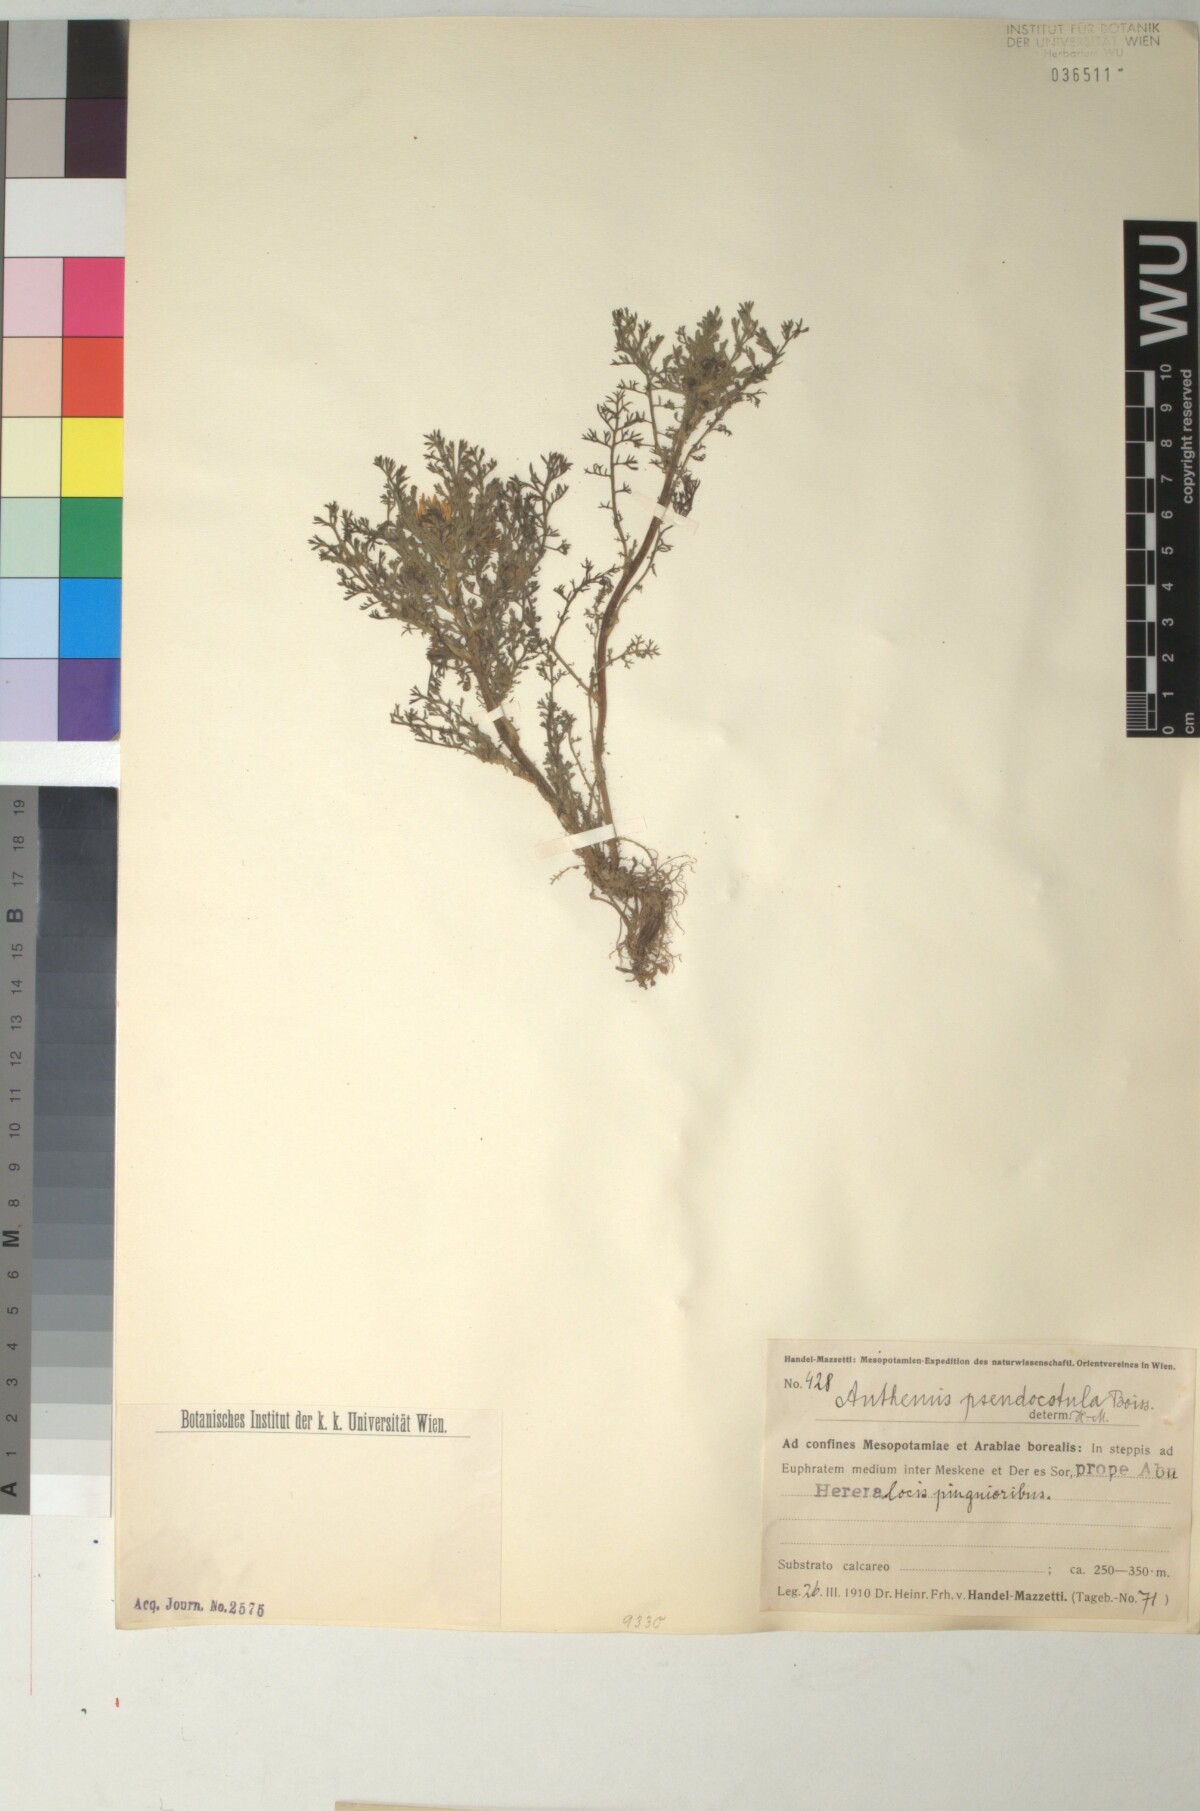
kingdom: Plantae
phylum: Tracheophyta
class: Magnoliopsida
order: Asterales
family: Asteraceae
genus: Anthemis
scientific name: Anthemis pseudocotula
